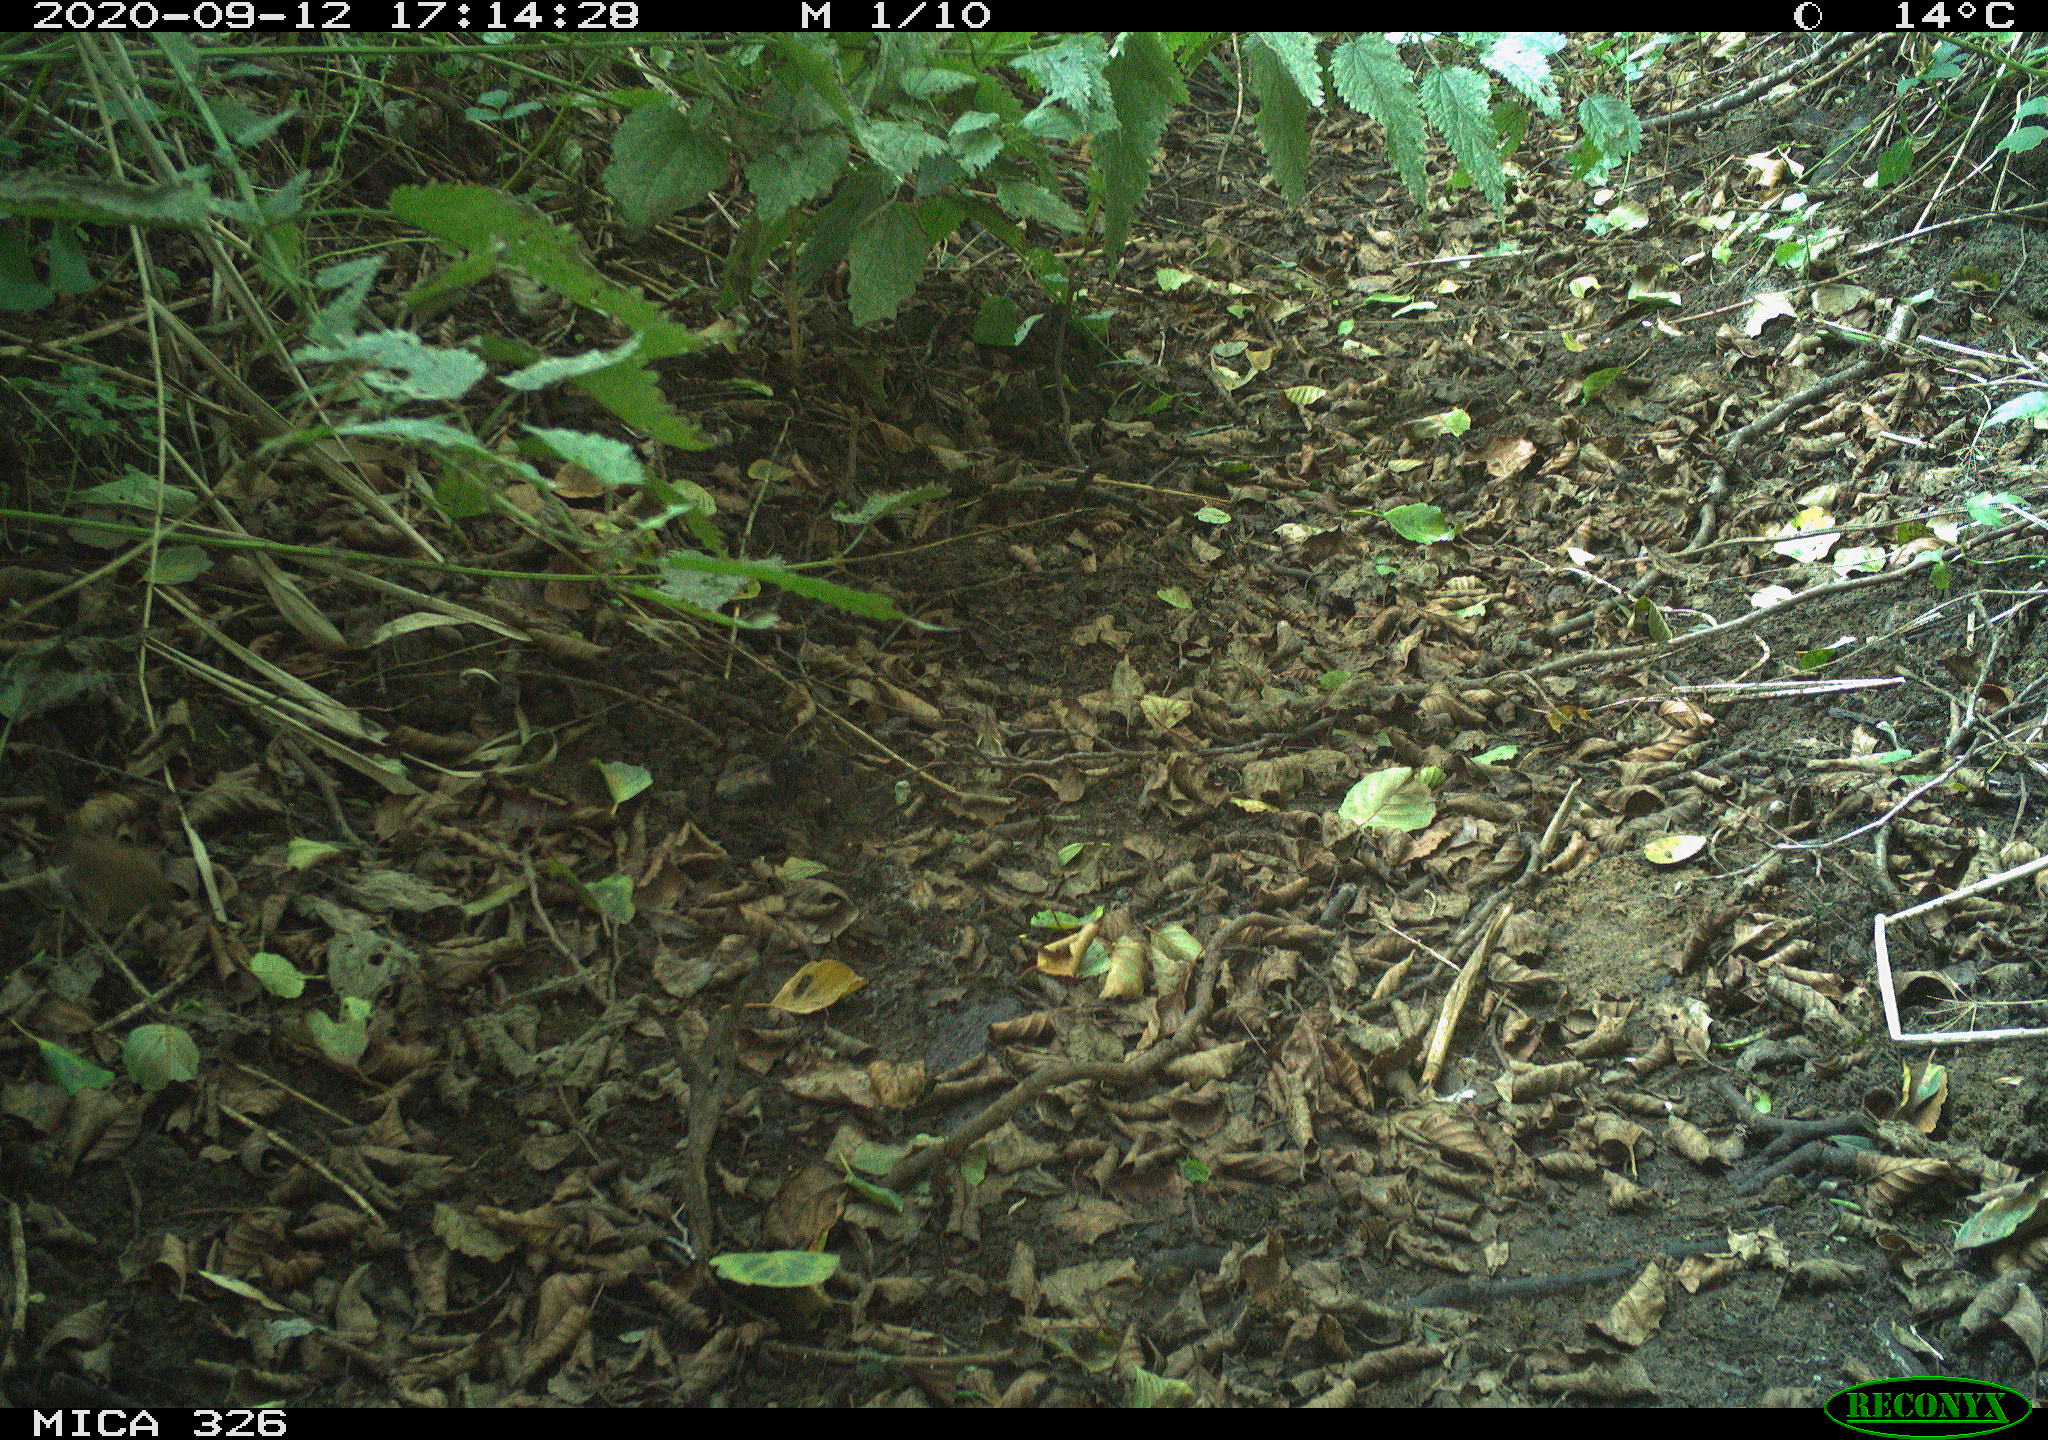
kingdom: Animalia
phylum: Chordata
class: Aves
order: Passeriformes
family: Troglodytidae
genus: Troglodytes
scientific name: Troglodytes troglodytes
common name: Eurasian wren
